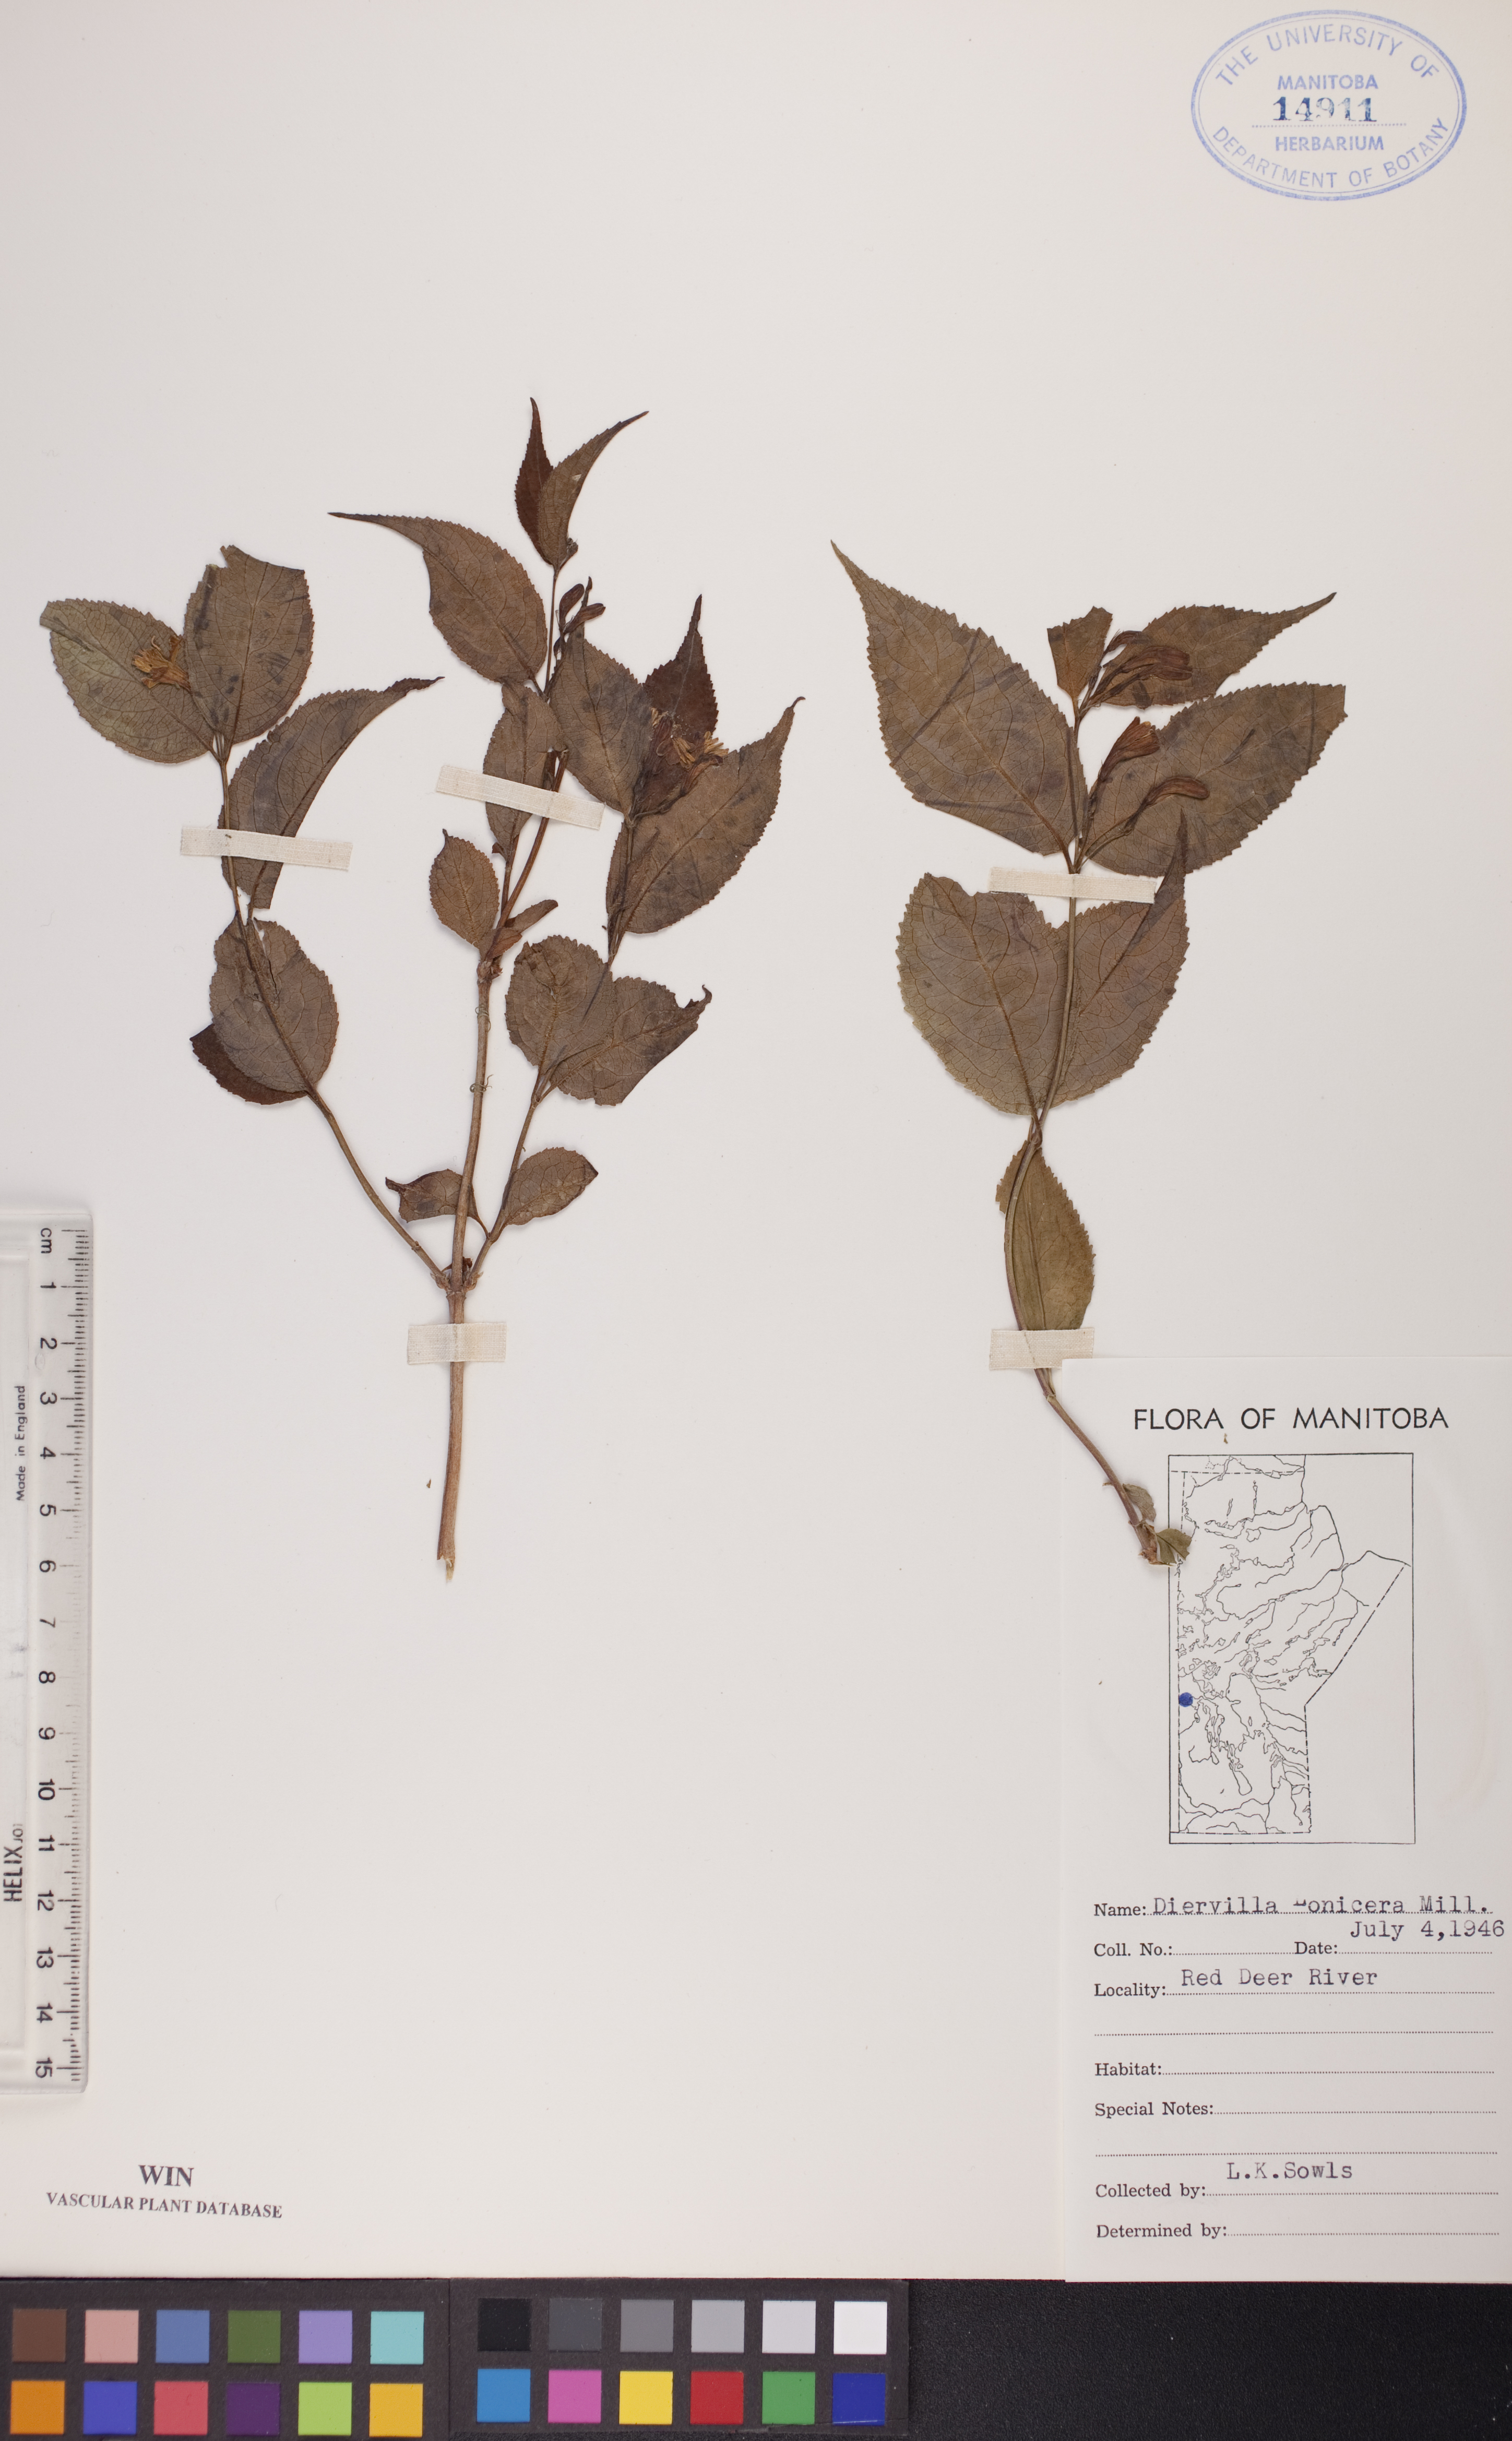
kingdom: Plantae
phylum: Tracheophyta
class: Magnoliopsida
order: Dipsacales
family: Caprifoliaceae
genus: Diervilla
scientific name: Diervilla lonicera
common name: Bush-honeysuckle
